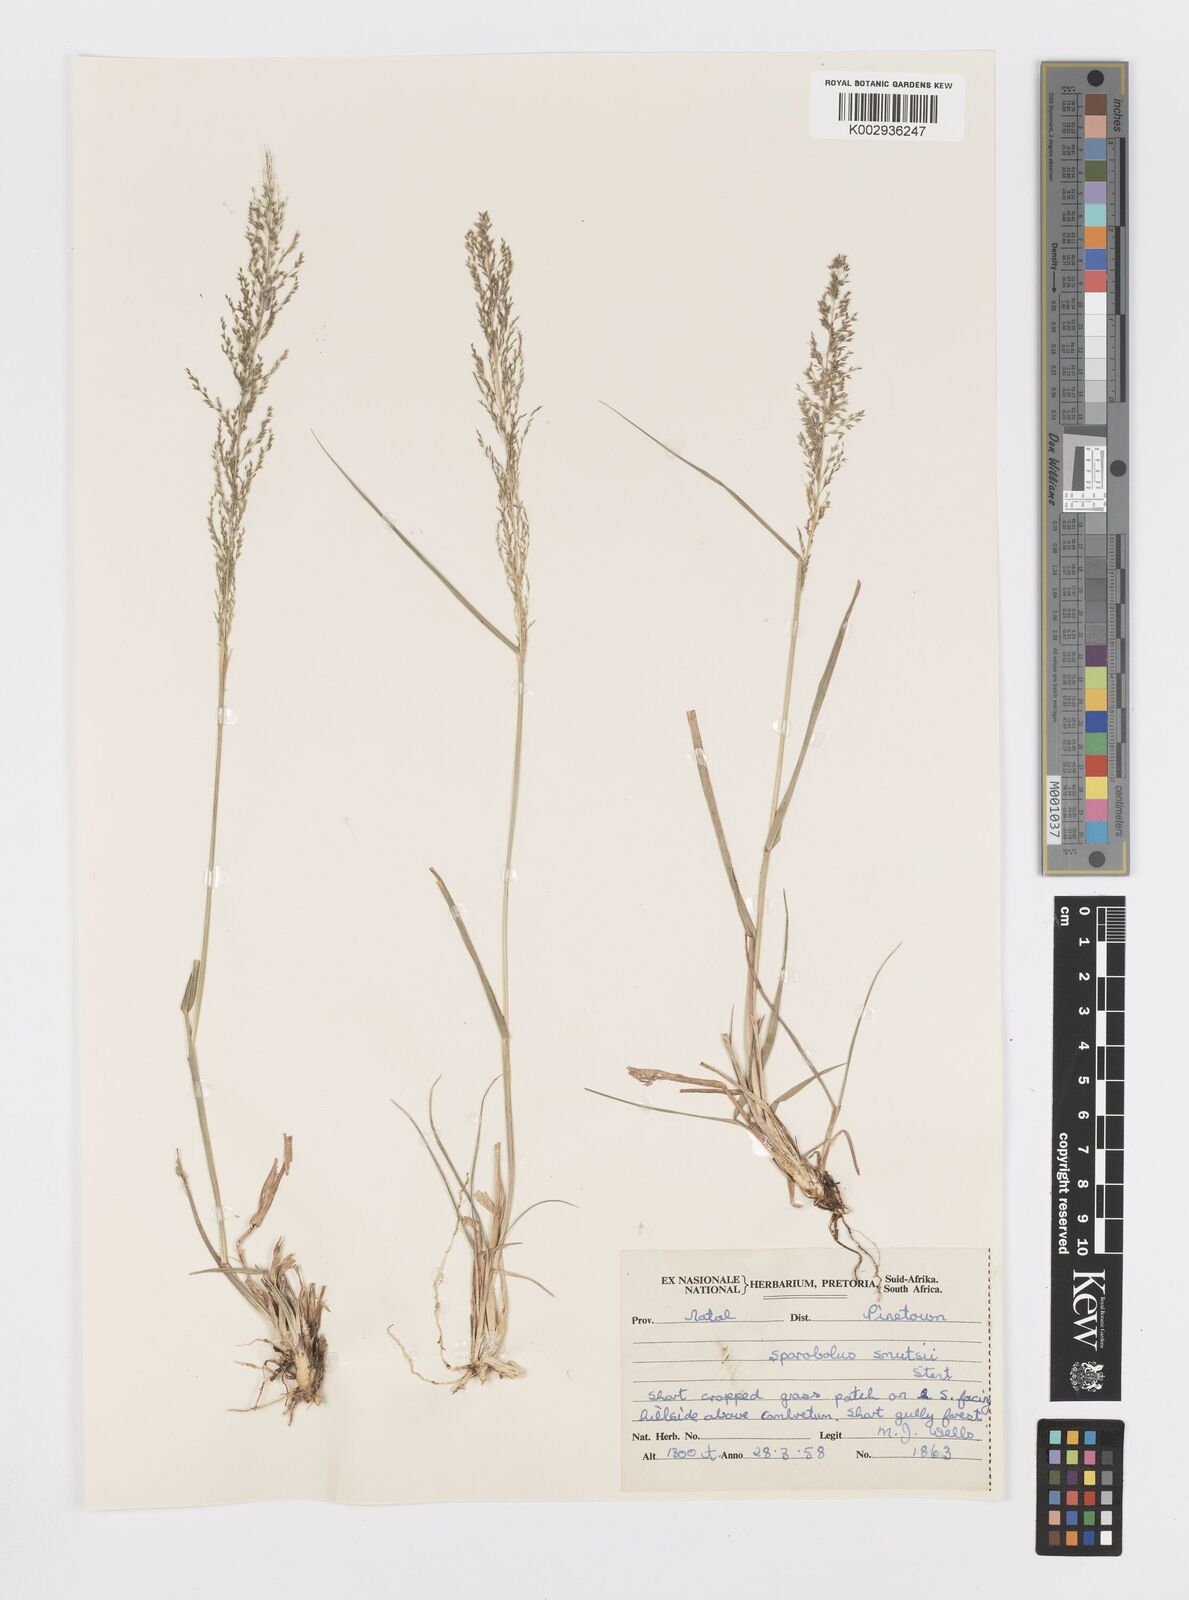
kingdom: Plantae
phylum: Tracheophyta
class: Liliopsida
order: Poales
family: Poaceae
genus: Sporobolus
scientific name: Sporobolus ioclados
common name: Pan dropseed
